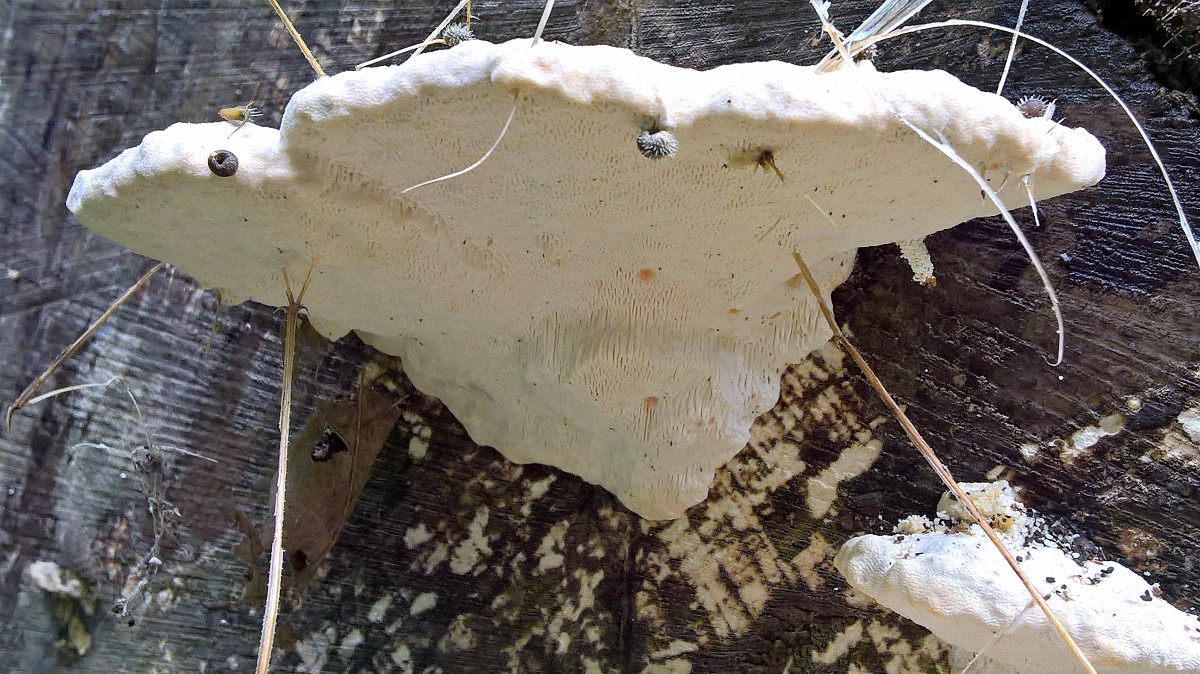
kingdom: Fungi
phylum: Basidiomycota
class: Agaricomycetes
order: Polyporales
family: Polyporaceae
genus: Trametes
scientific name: Trametes gibbosa
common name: puklet læderporesvamp
